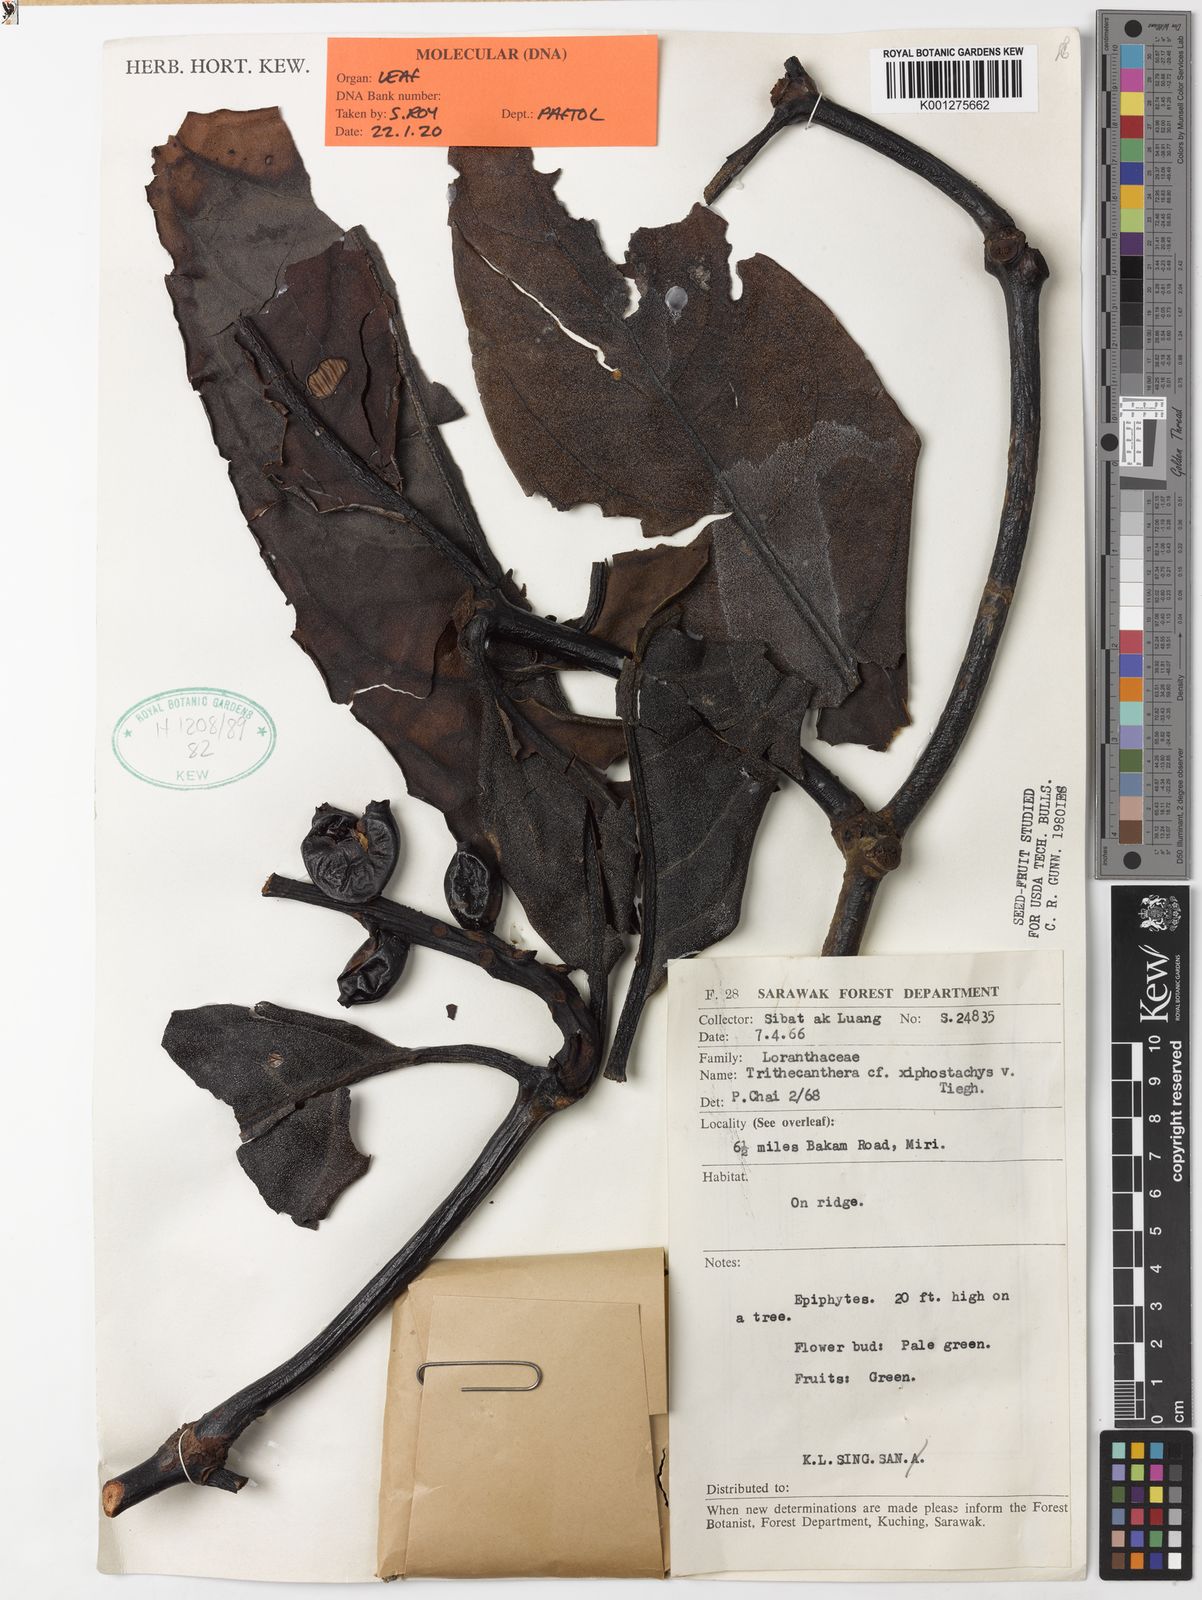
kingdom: Plantae
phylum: Tracheophyta
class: Magnoliopsida
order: Santalales
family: Loranthaceae
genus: Trithecanthera
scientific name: Trithecanthera xiphostachya
